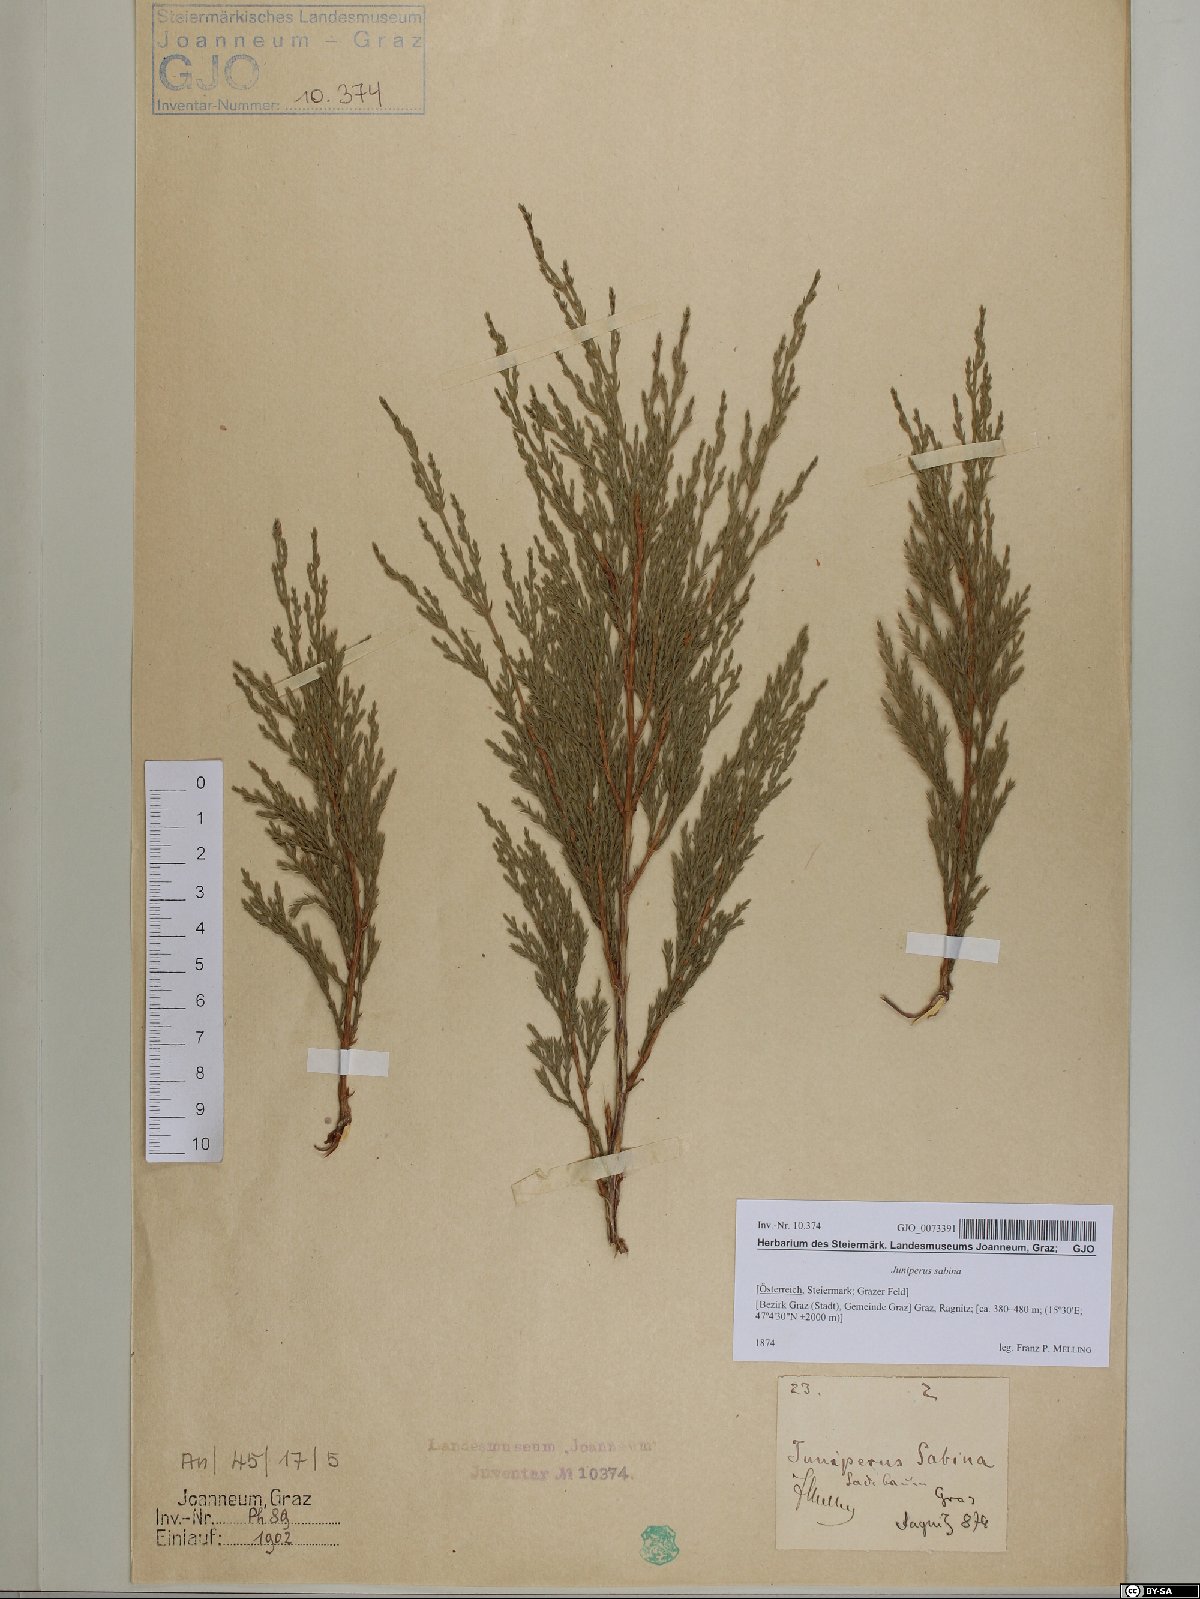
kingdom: Plantae
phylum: Tracheophyta
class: Pinopsida
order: Pinales
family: Cupressaceae
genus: Juniperus
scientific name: Juniperus sabina
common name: Savin
